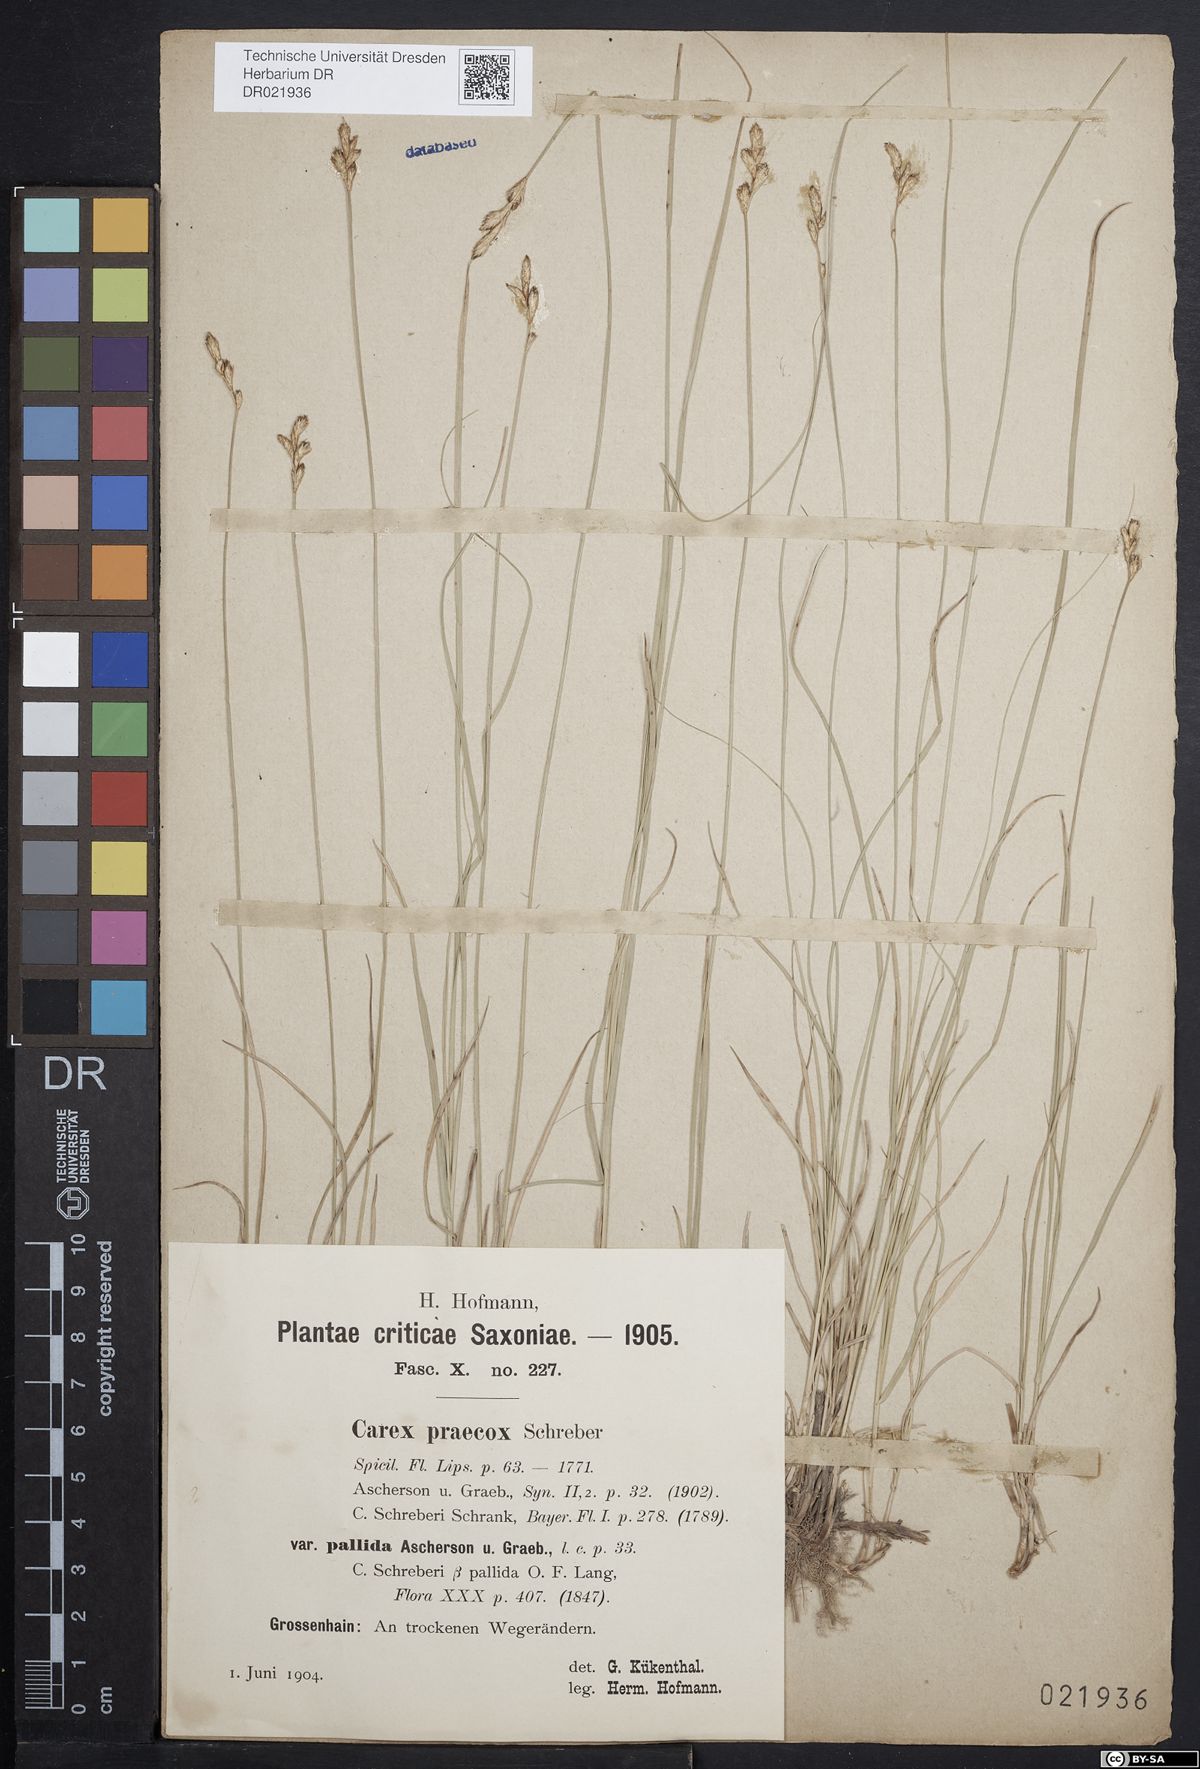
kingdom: Plantae
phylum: Tracheophyta
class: Liliopsida
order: Poales
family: Cyperaceae
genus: Carex
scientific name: Carex praecox
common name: Early sedge
